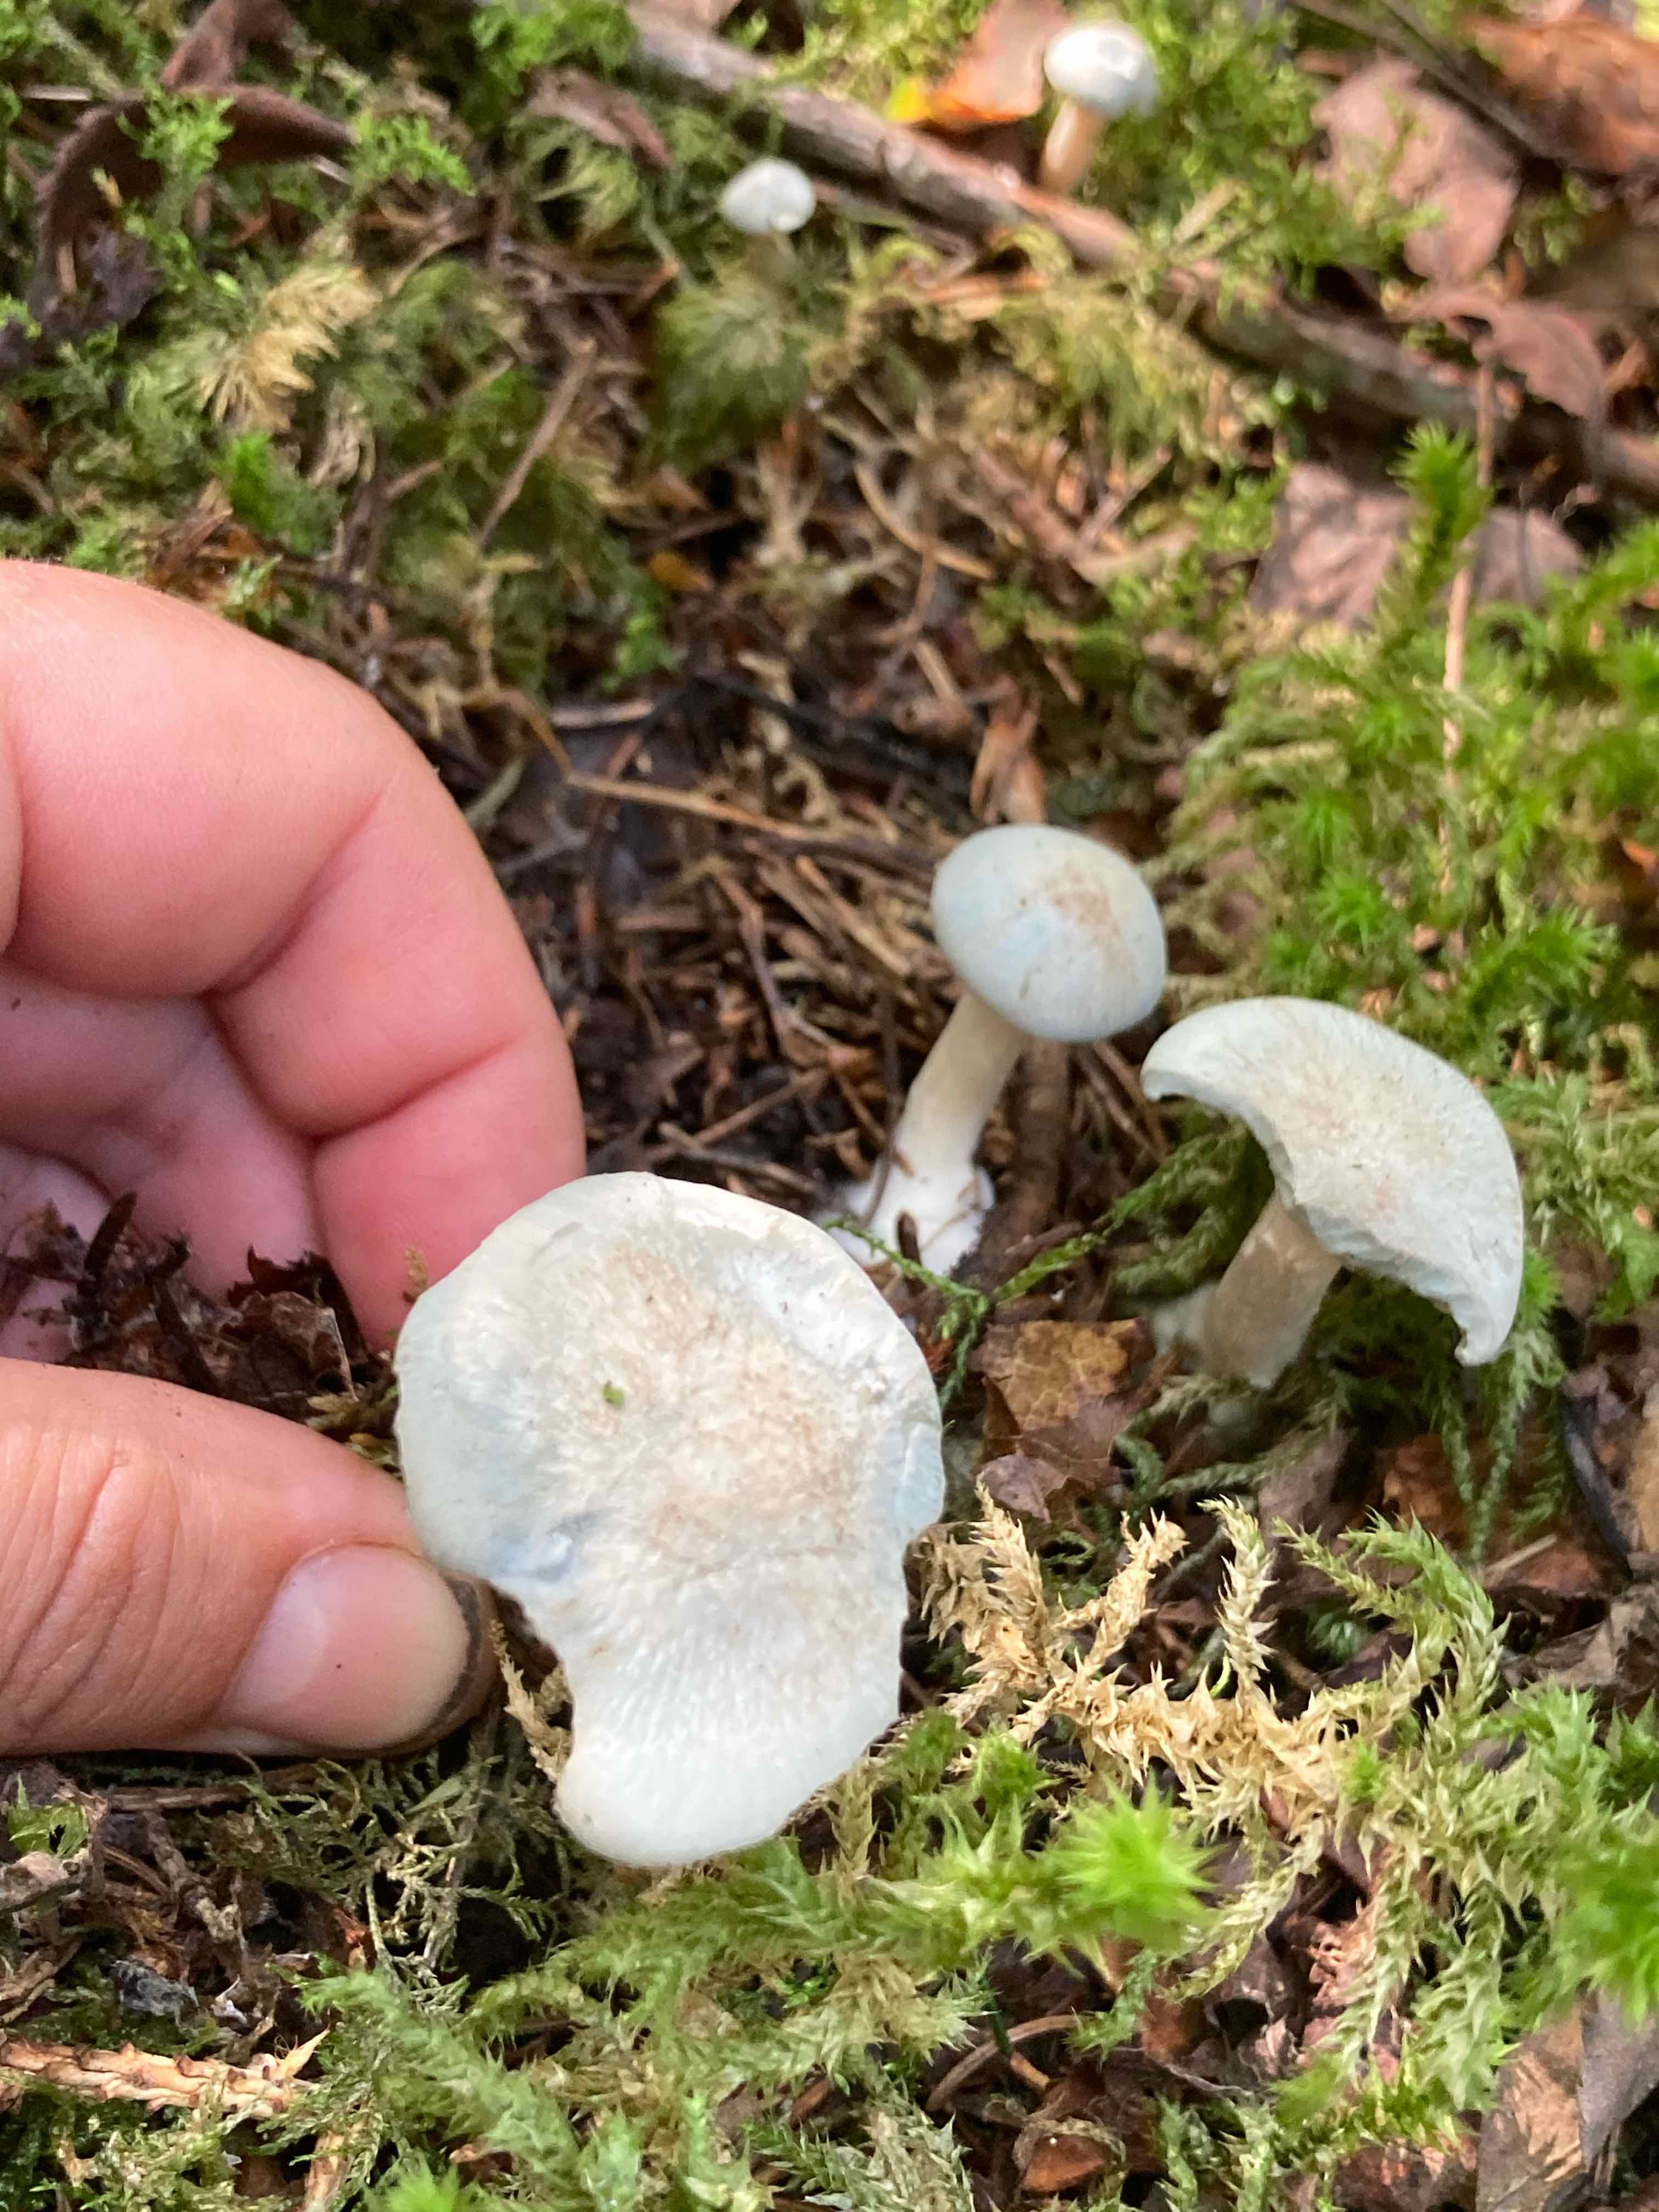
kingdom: Fungi
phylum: Basidiomycota
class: Agaricomycetes
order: Agaricales
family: Tricholomataceae
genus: Clitocybe
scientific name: Clitocybe odora
